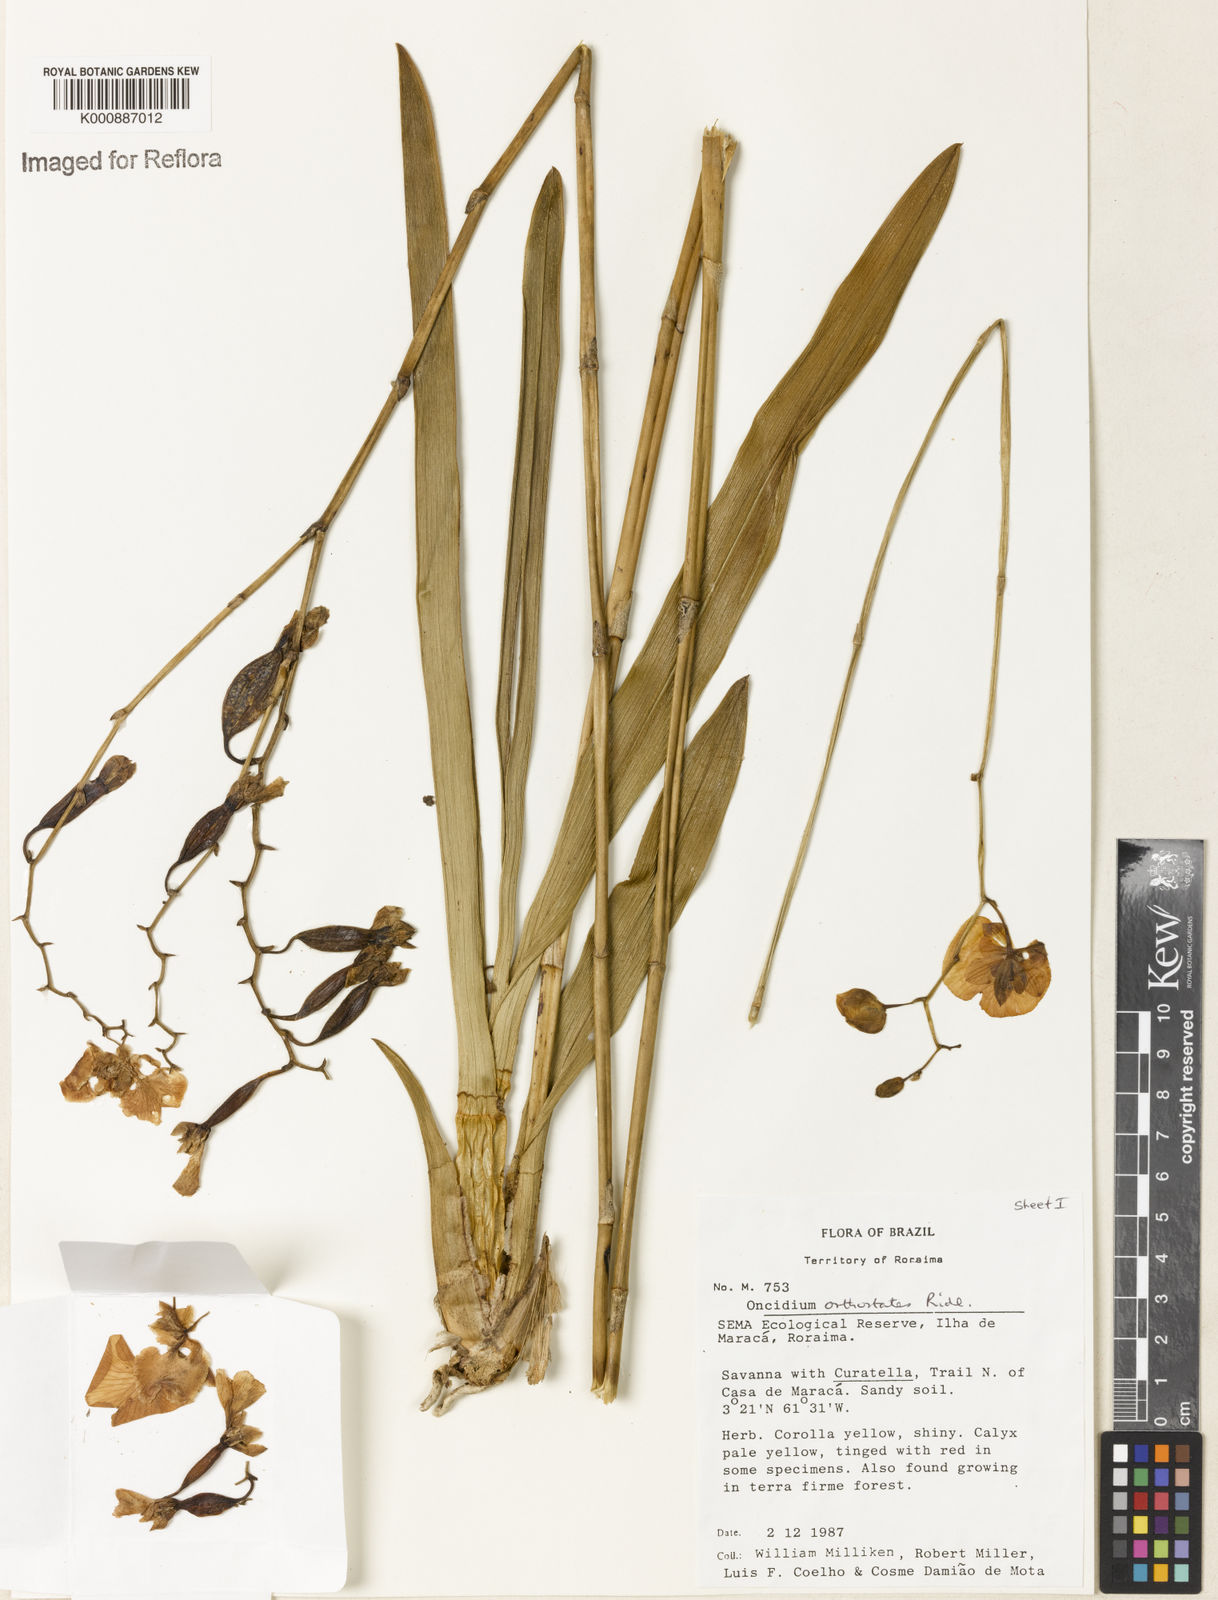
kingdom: Plantae
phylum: Tracheophyta
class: Liliopsida
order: Asparagales
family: Orchidaceae
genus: Nohawilliamsia
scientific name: Nohawilliamsia pirarensis
